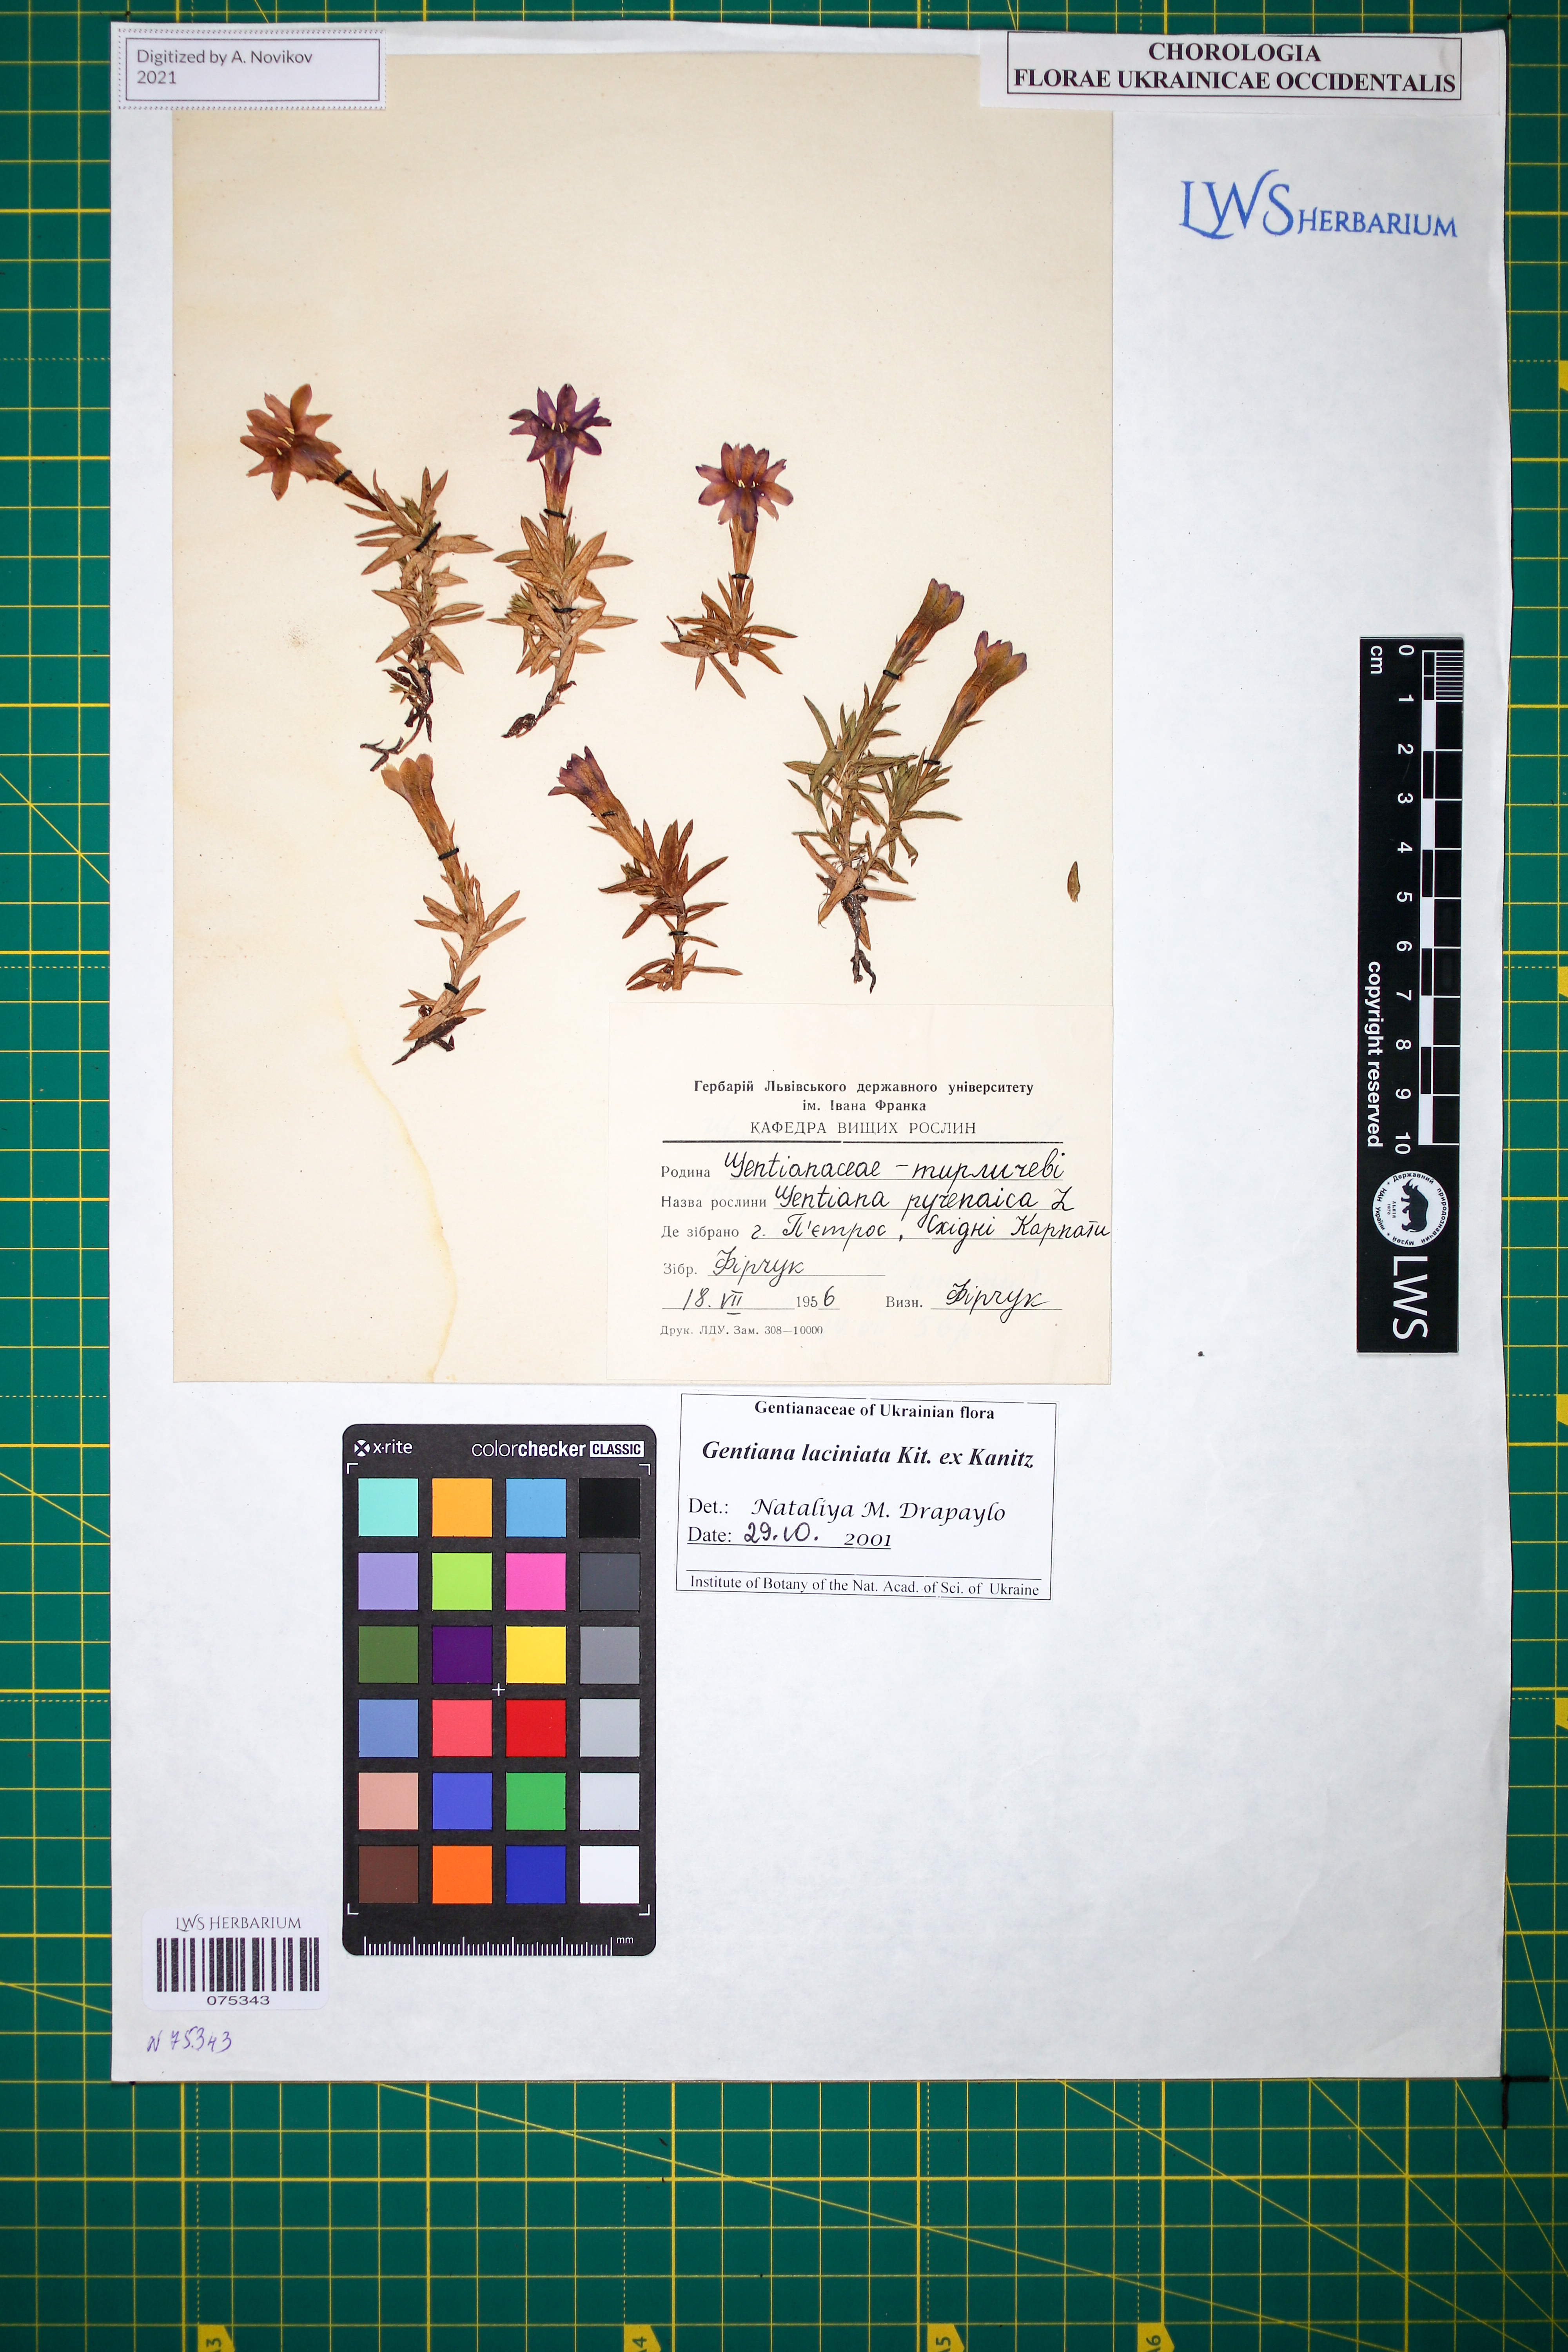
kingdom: Plantae
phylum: Tracheophyta
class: Magnoliopsida
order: Gentianales
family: Gentianaceae
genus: Gentiana
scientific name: Gentiana laciniata
